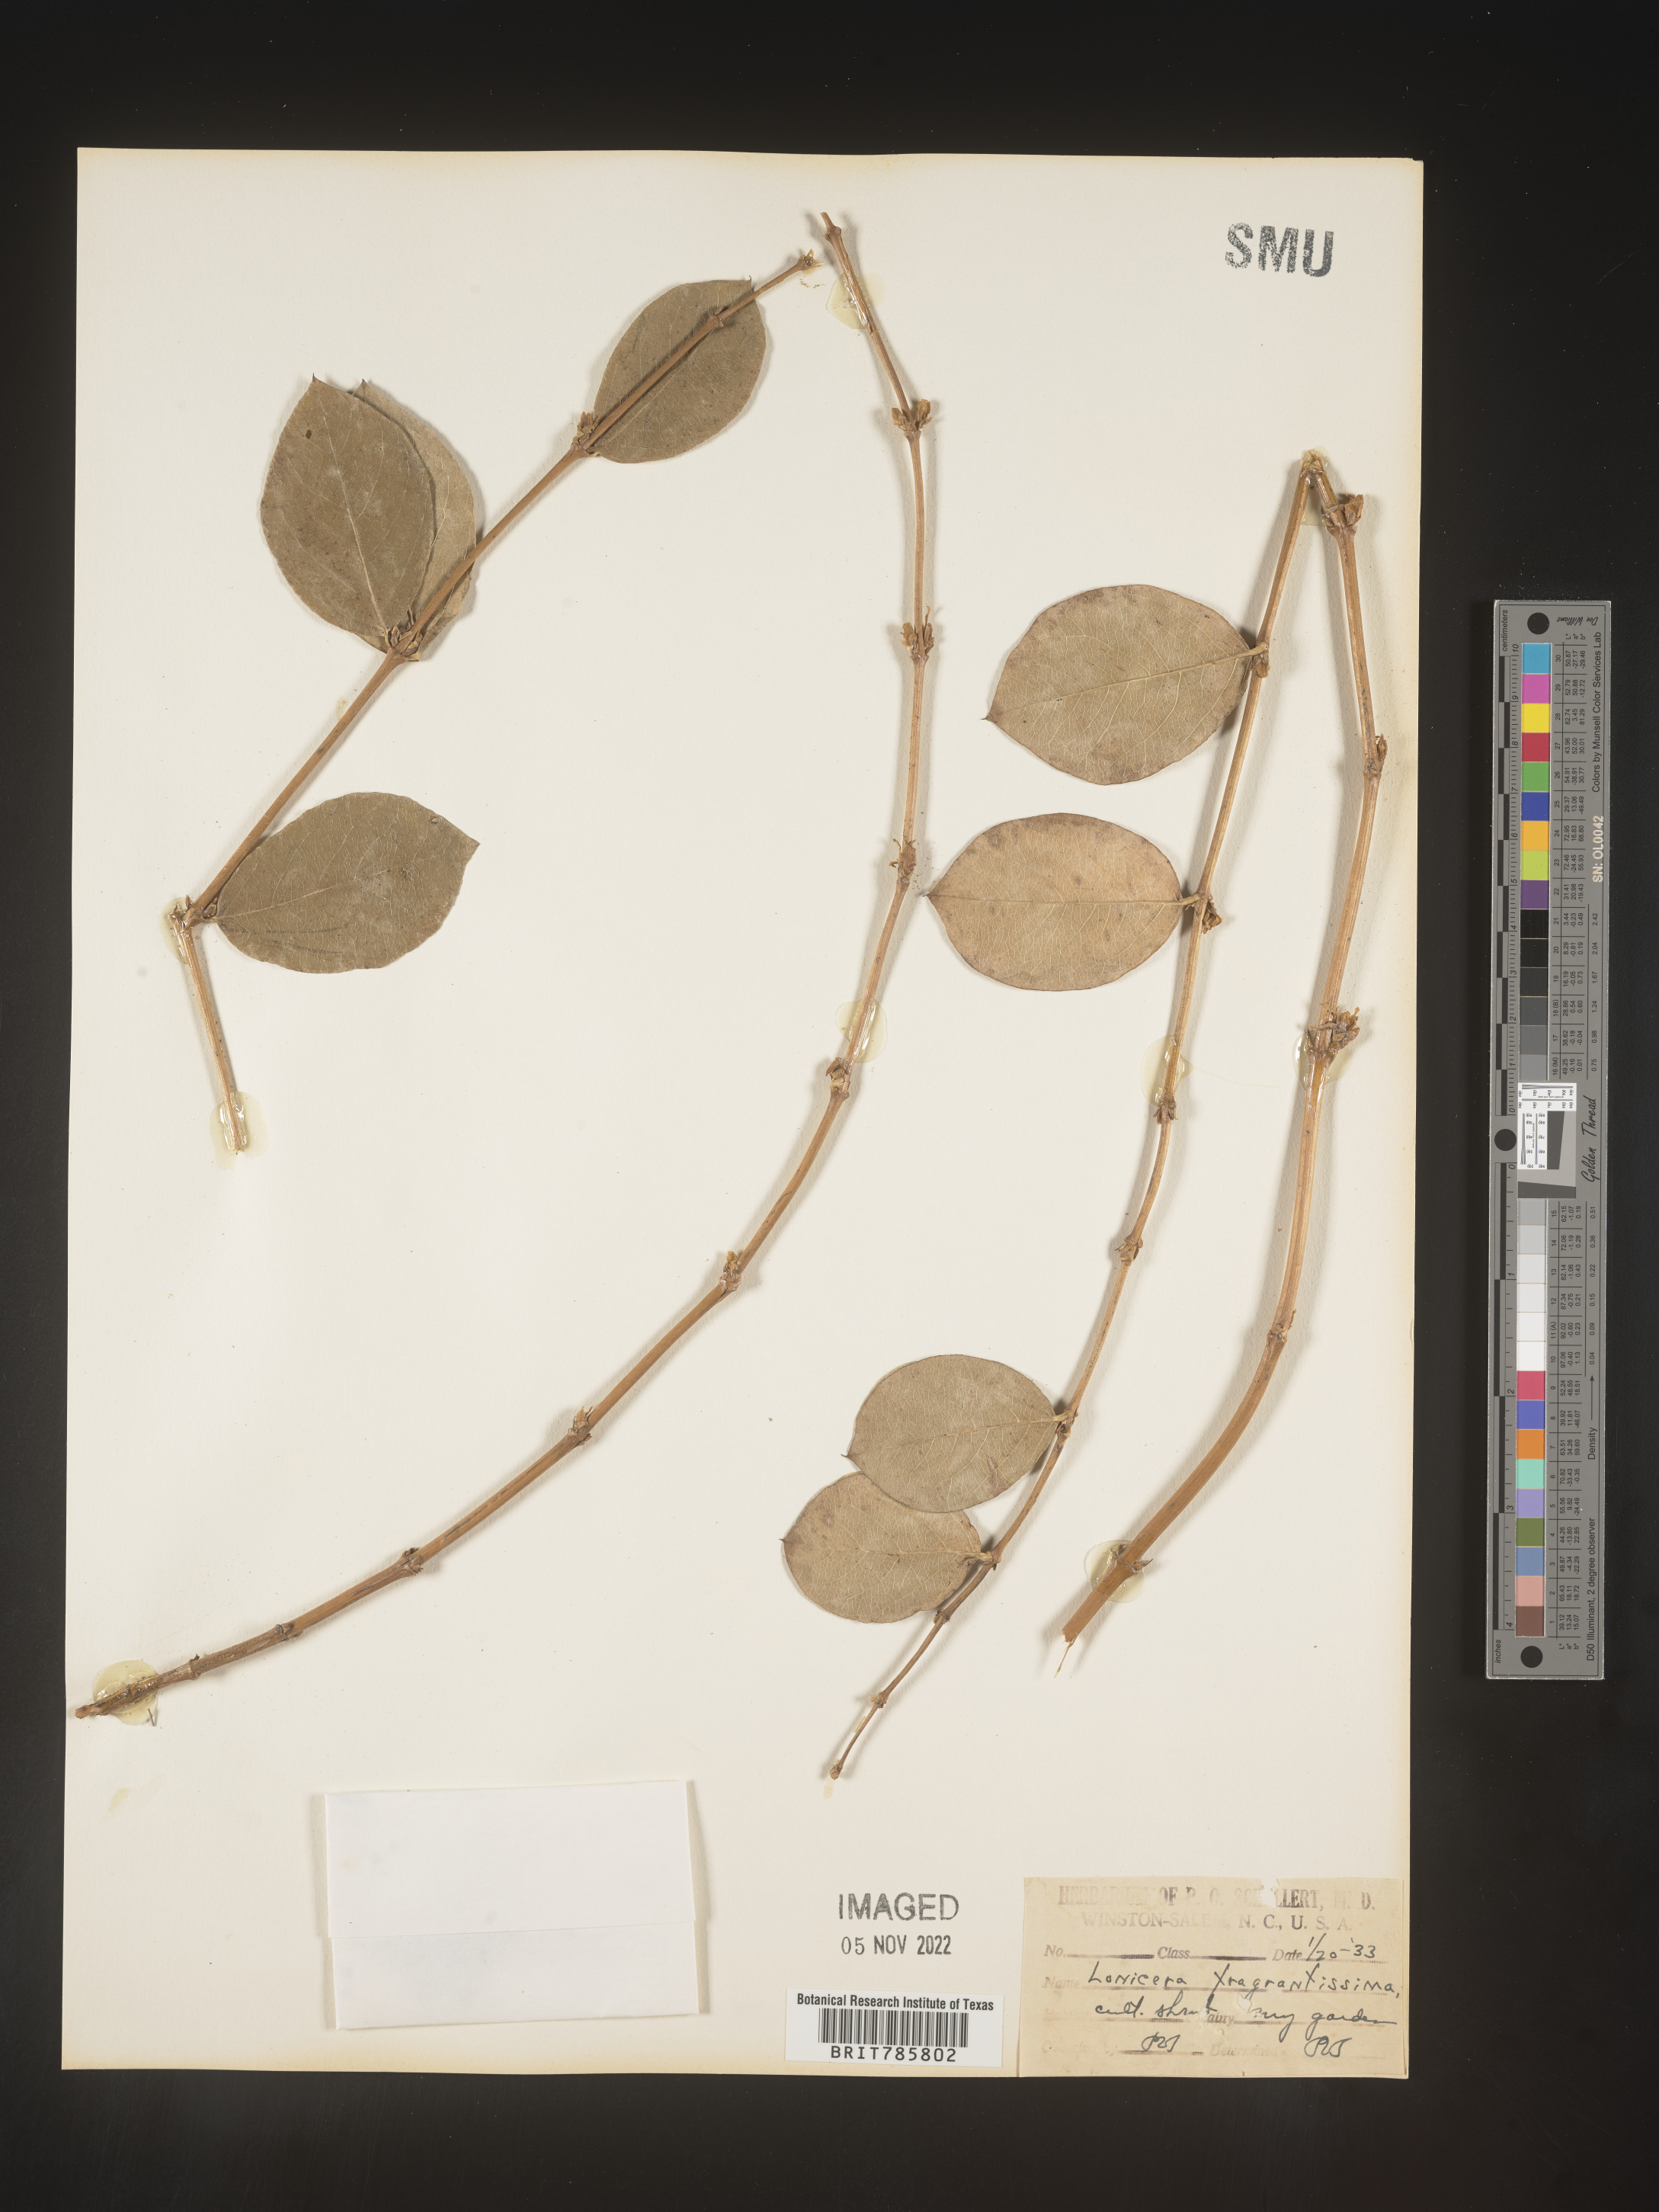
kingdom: Plantae
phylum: Tracheophyta
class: Magnoliopsida
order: Dipsacales
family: Caprifoliaceae
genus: Lonicera
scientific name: Lonicera
